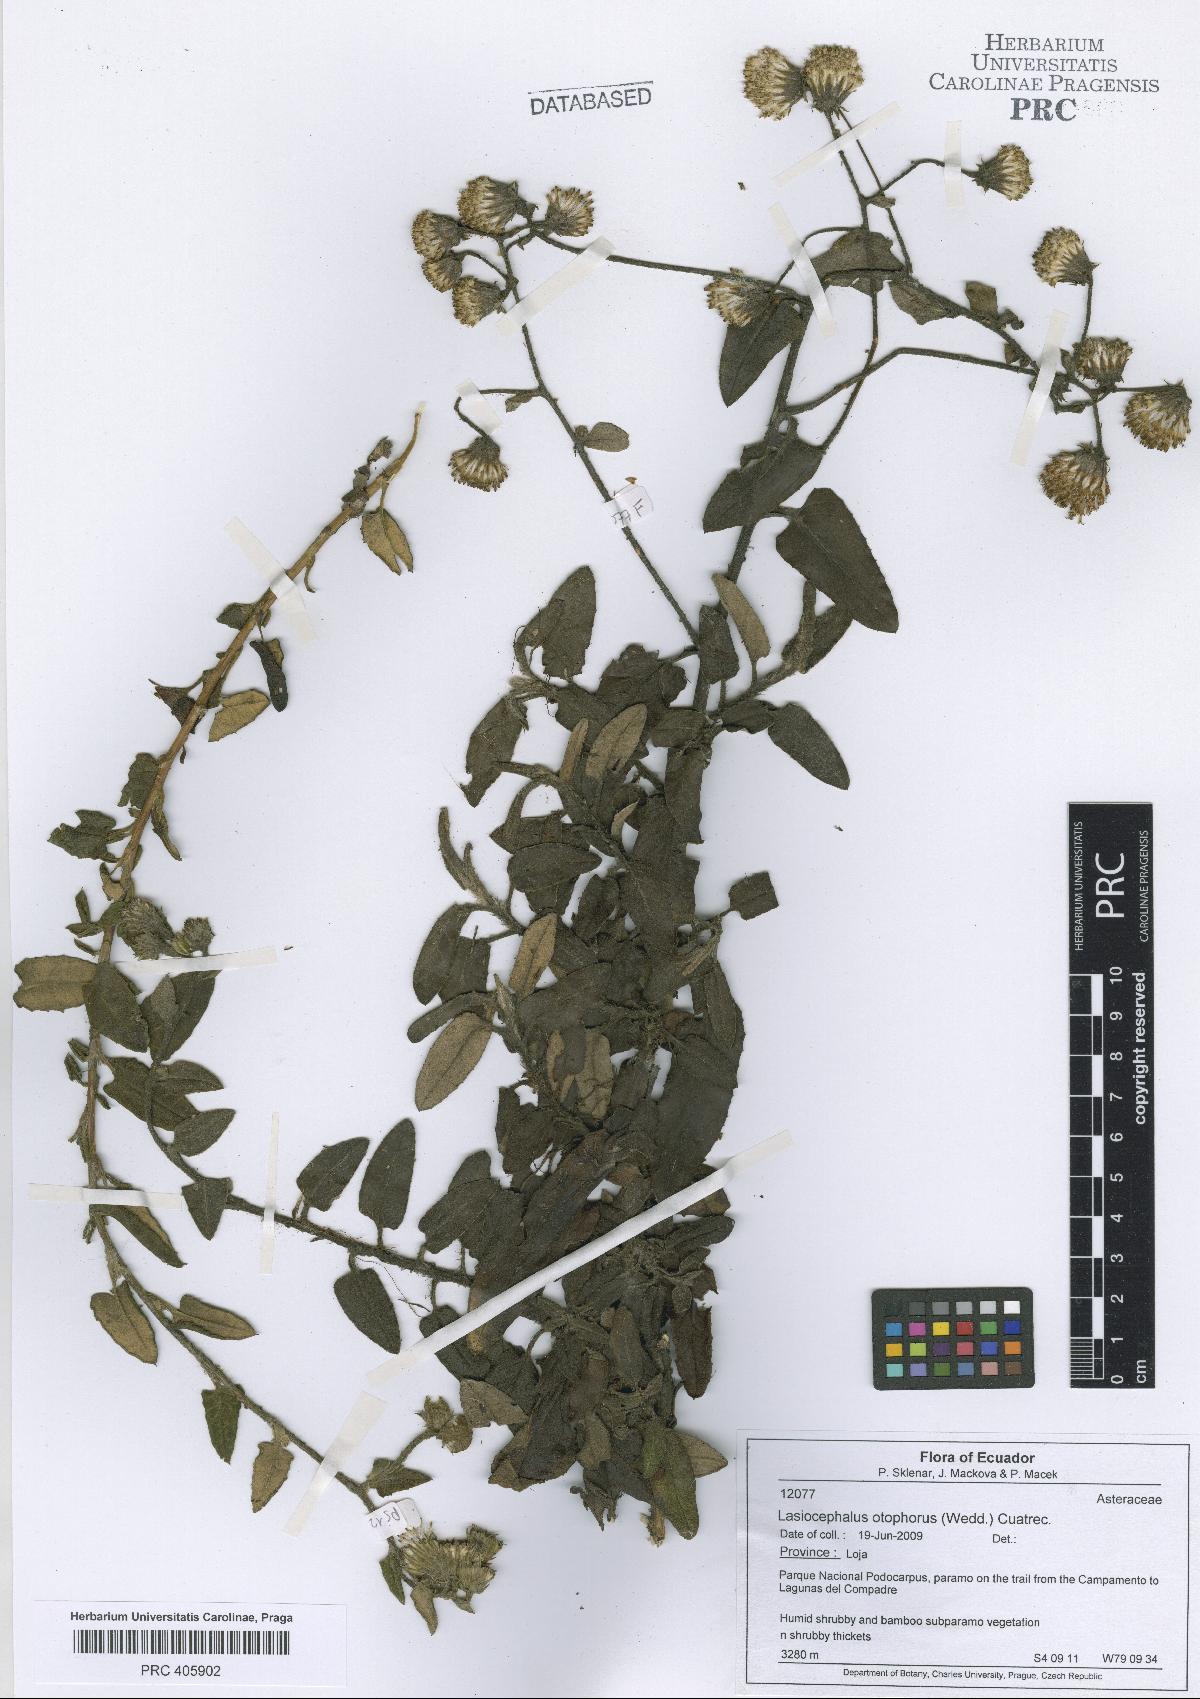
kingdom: Plantae
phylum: Tracheophyta
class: Magnoliopsida
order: Asterales
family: Asteraceae
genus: Aetheolaena
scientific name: Aetheolaena otophora
